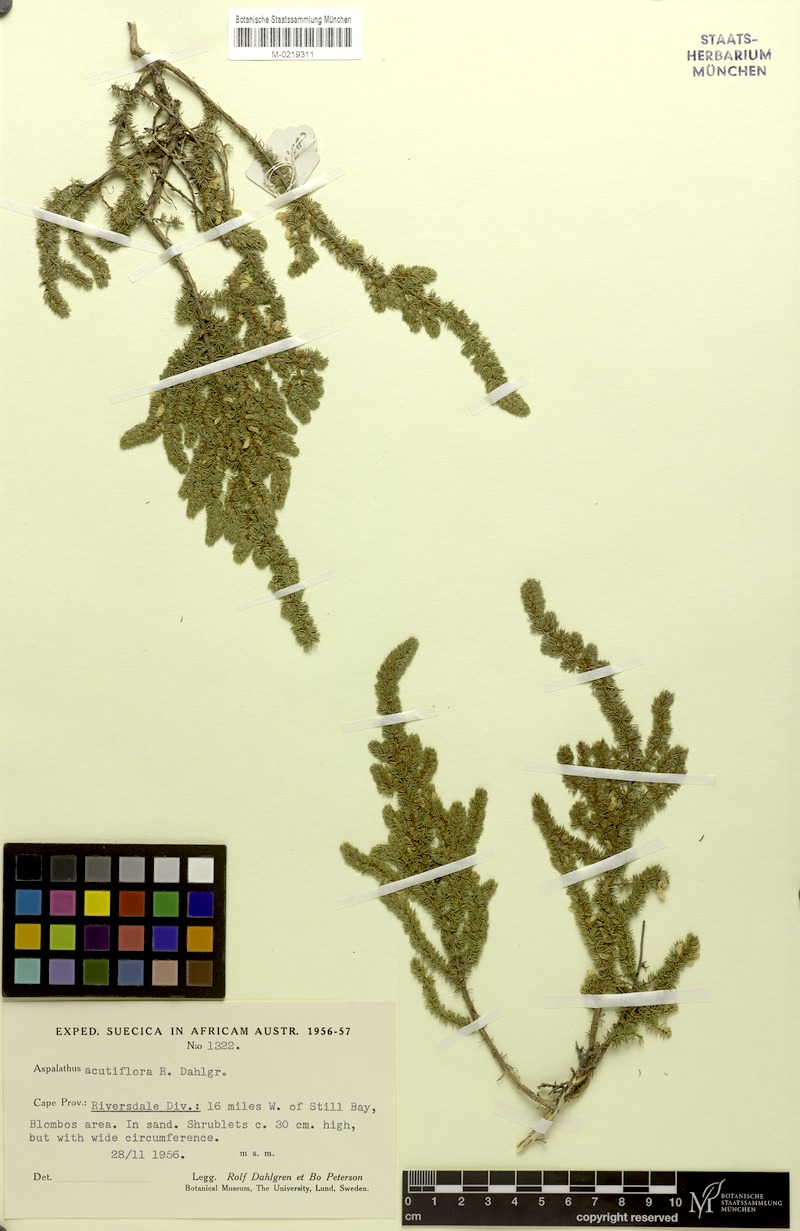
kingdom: Plantae
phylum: Tracheophyta
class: Magnoliopsida
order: Fabales
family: Fabaceae
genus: Aspalathus
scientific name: Aspalathus acutiflora
